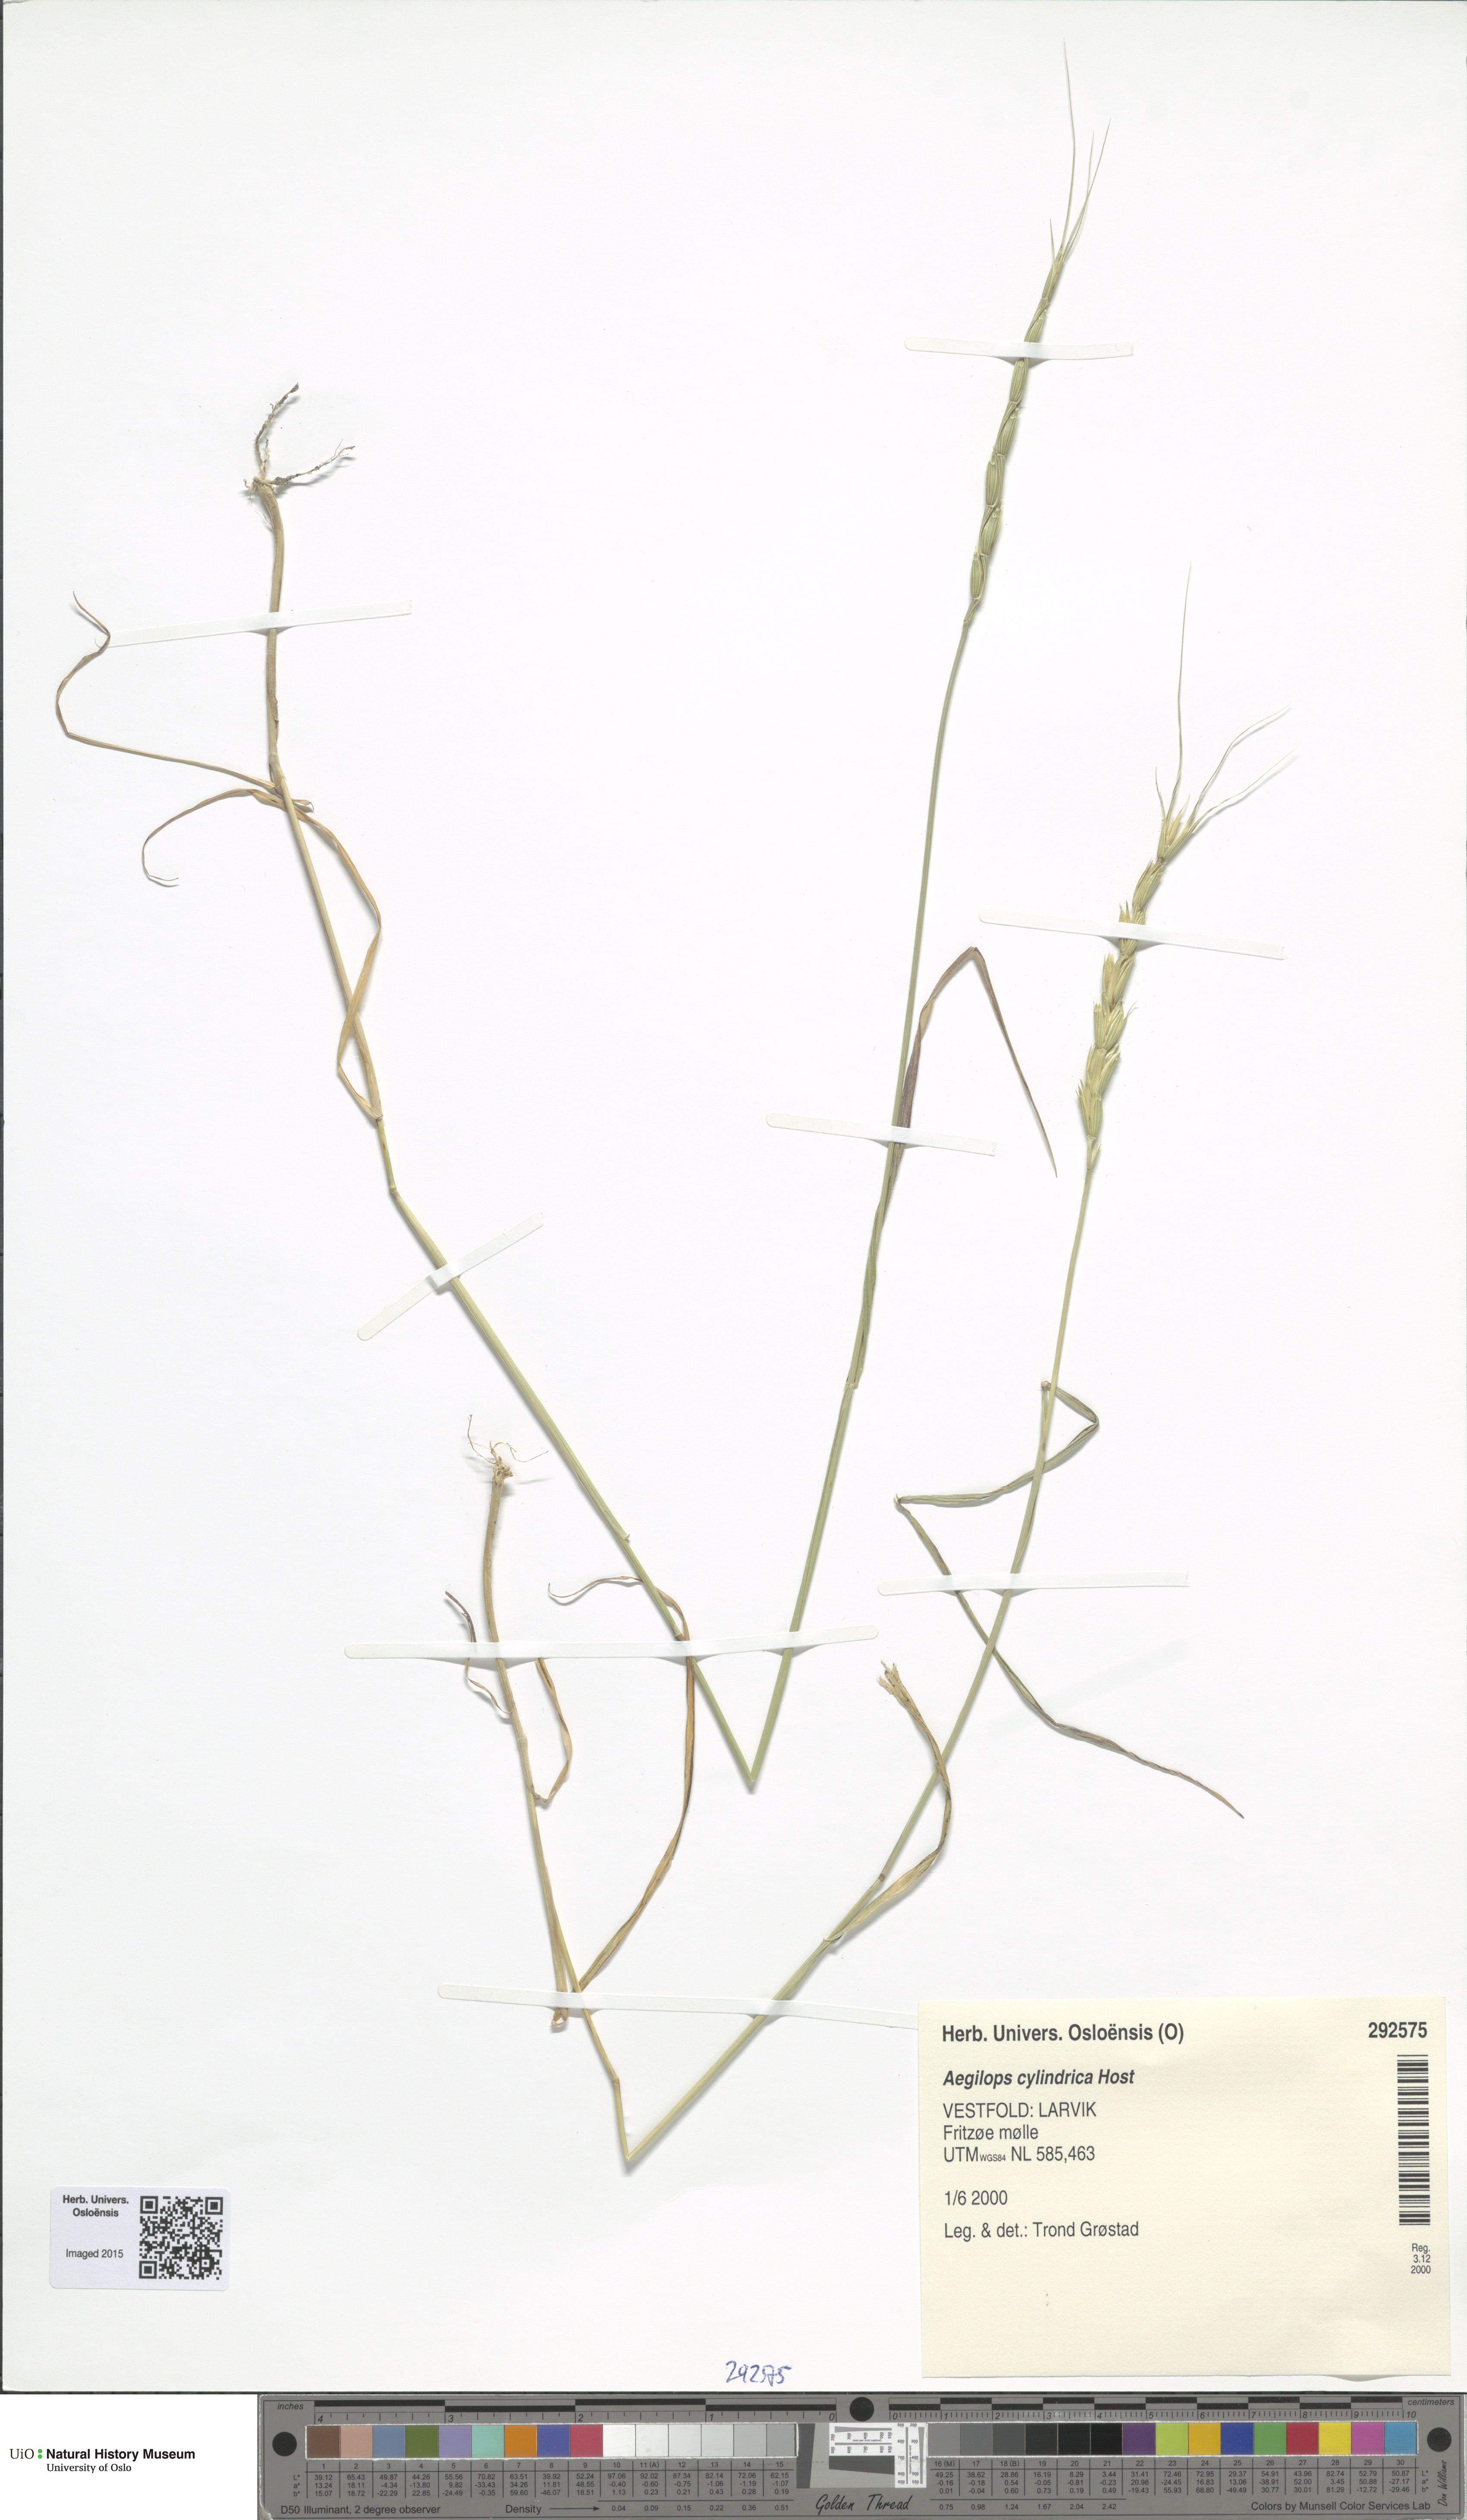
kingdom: Plantae
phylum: Tracheophyta
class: Liliopsida
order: Poales
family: Poaceae
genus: Aegilops
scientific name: Aegilops cylindrica
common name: Jointed goatgrass
